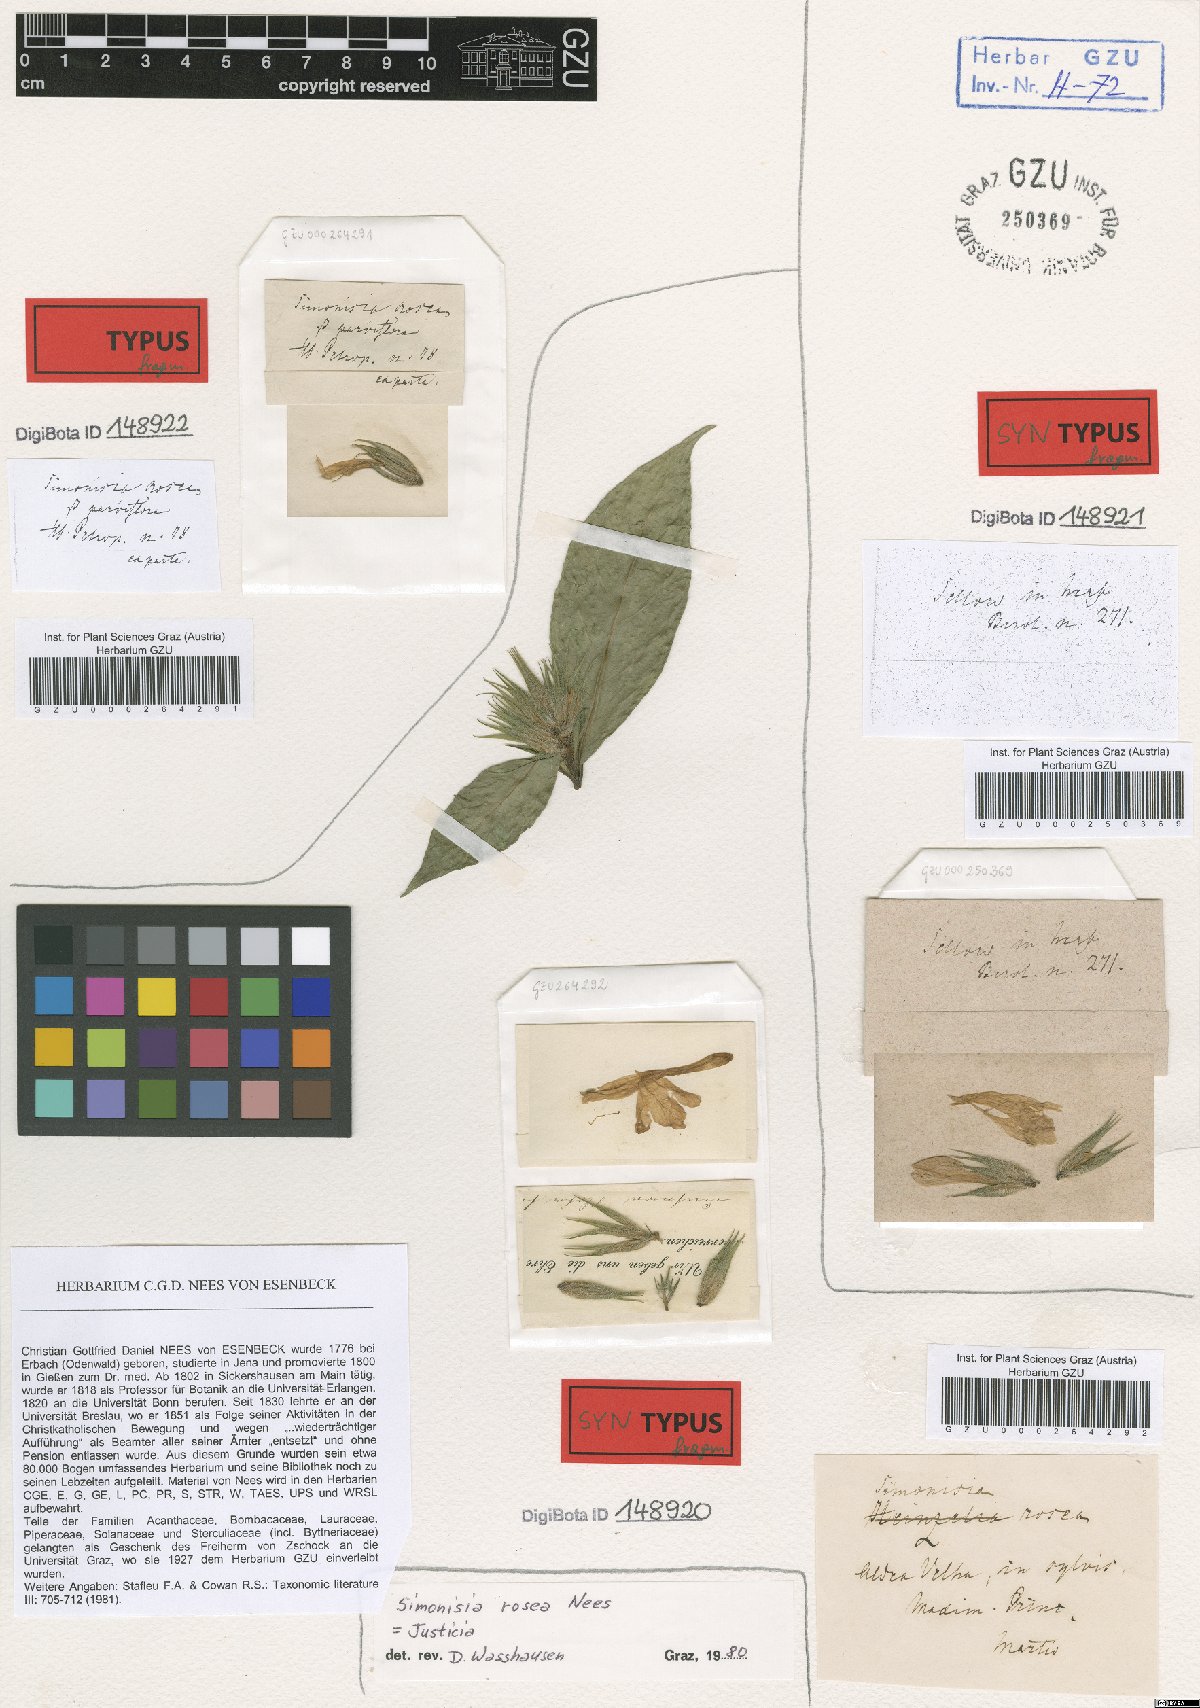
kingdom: Plantae
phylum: Tracheophyta
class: Magnoliopsida
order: Lamiales
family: Acanthaceae
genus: Justicia
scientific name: Justicia simonisia
